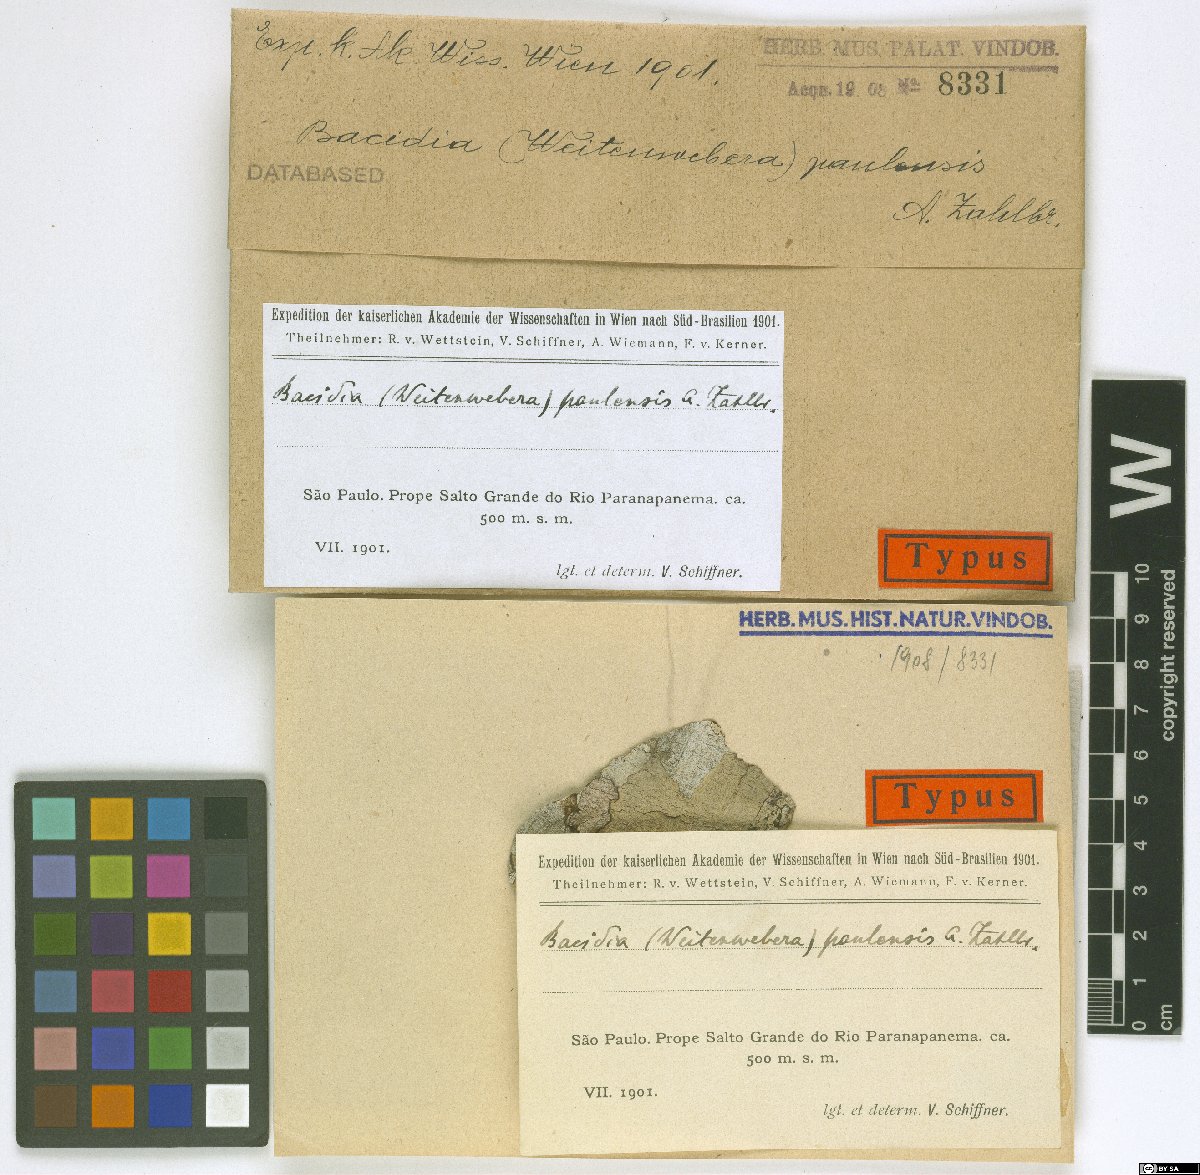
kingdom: Fungi
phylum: Ascomycota
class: Lecanoromycetes
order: Lecanorales
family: Ramalinaceae
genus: Bacidia
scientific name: Bacidia
